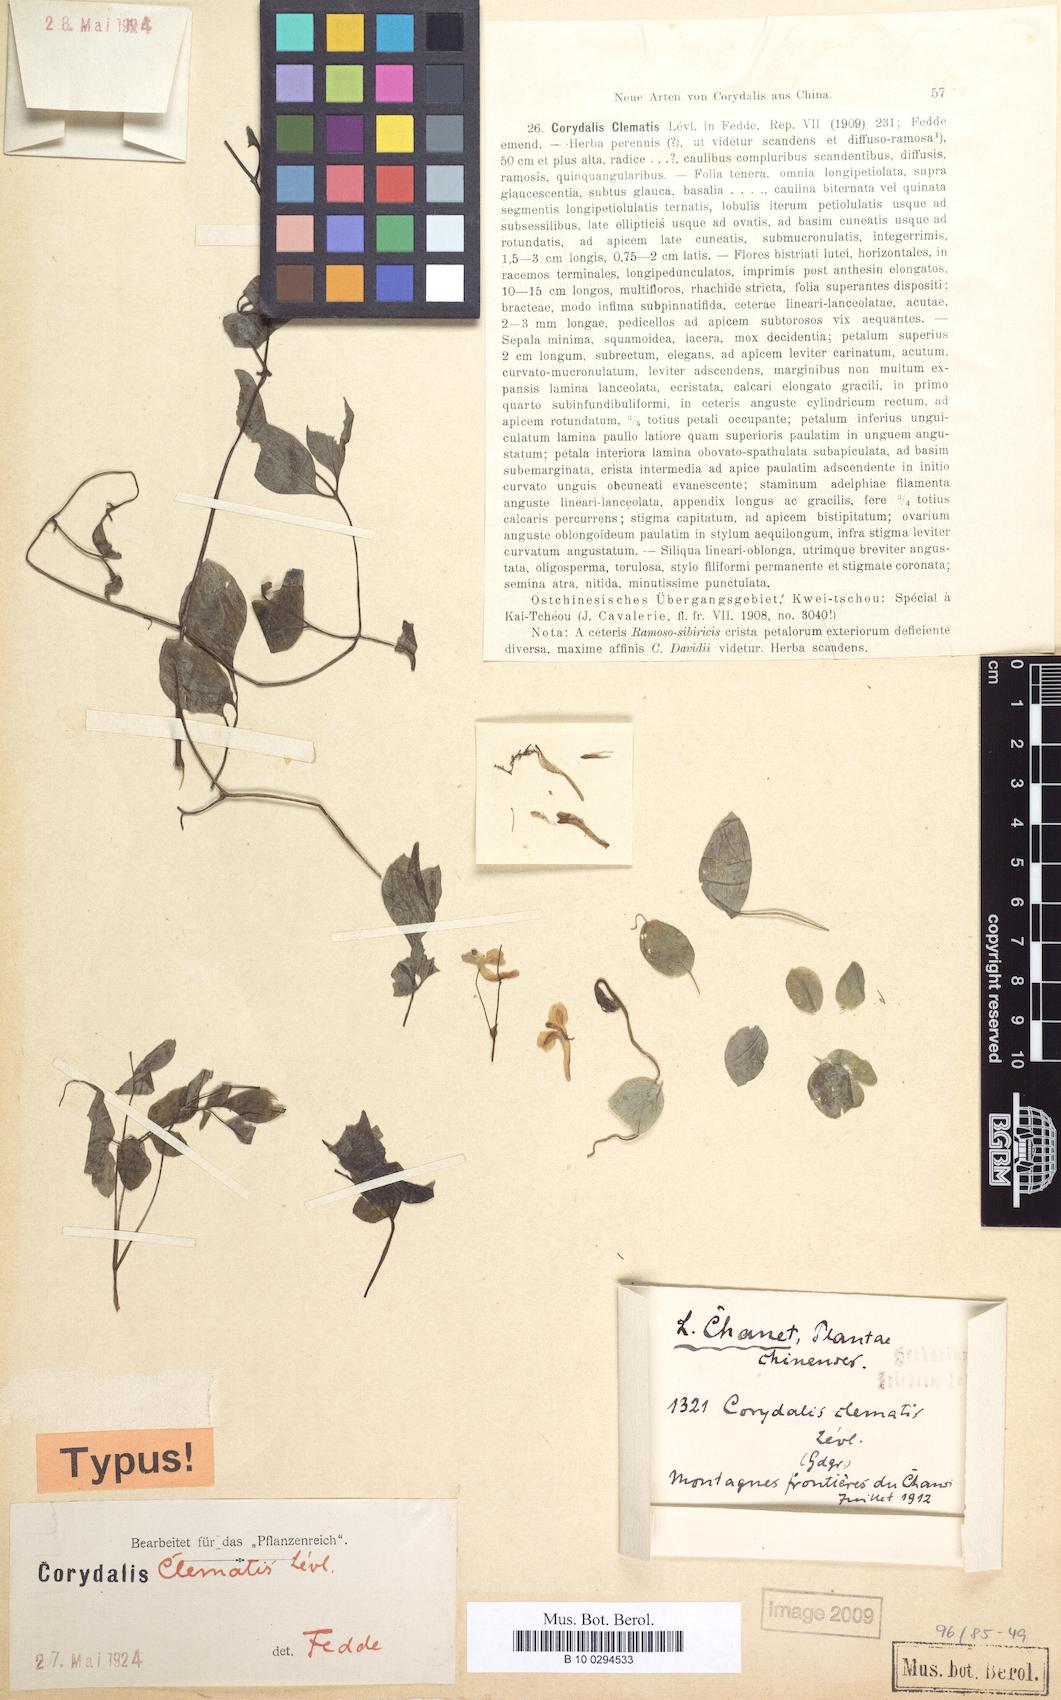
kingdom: Plantae
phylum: Tracheophyta
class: Magnoliopsida
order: Ranunculales
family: Papaveraceae
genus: Corydalis
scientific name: Corydalis longicornu
